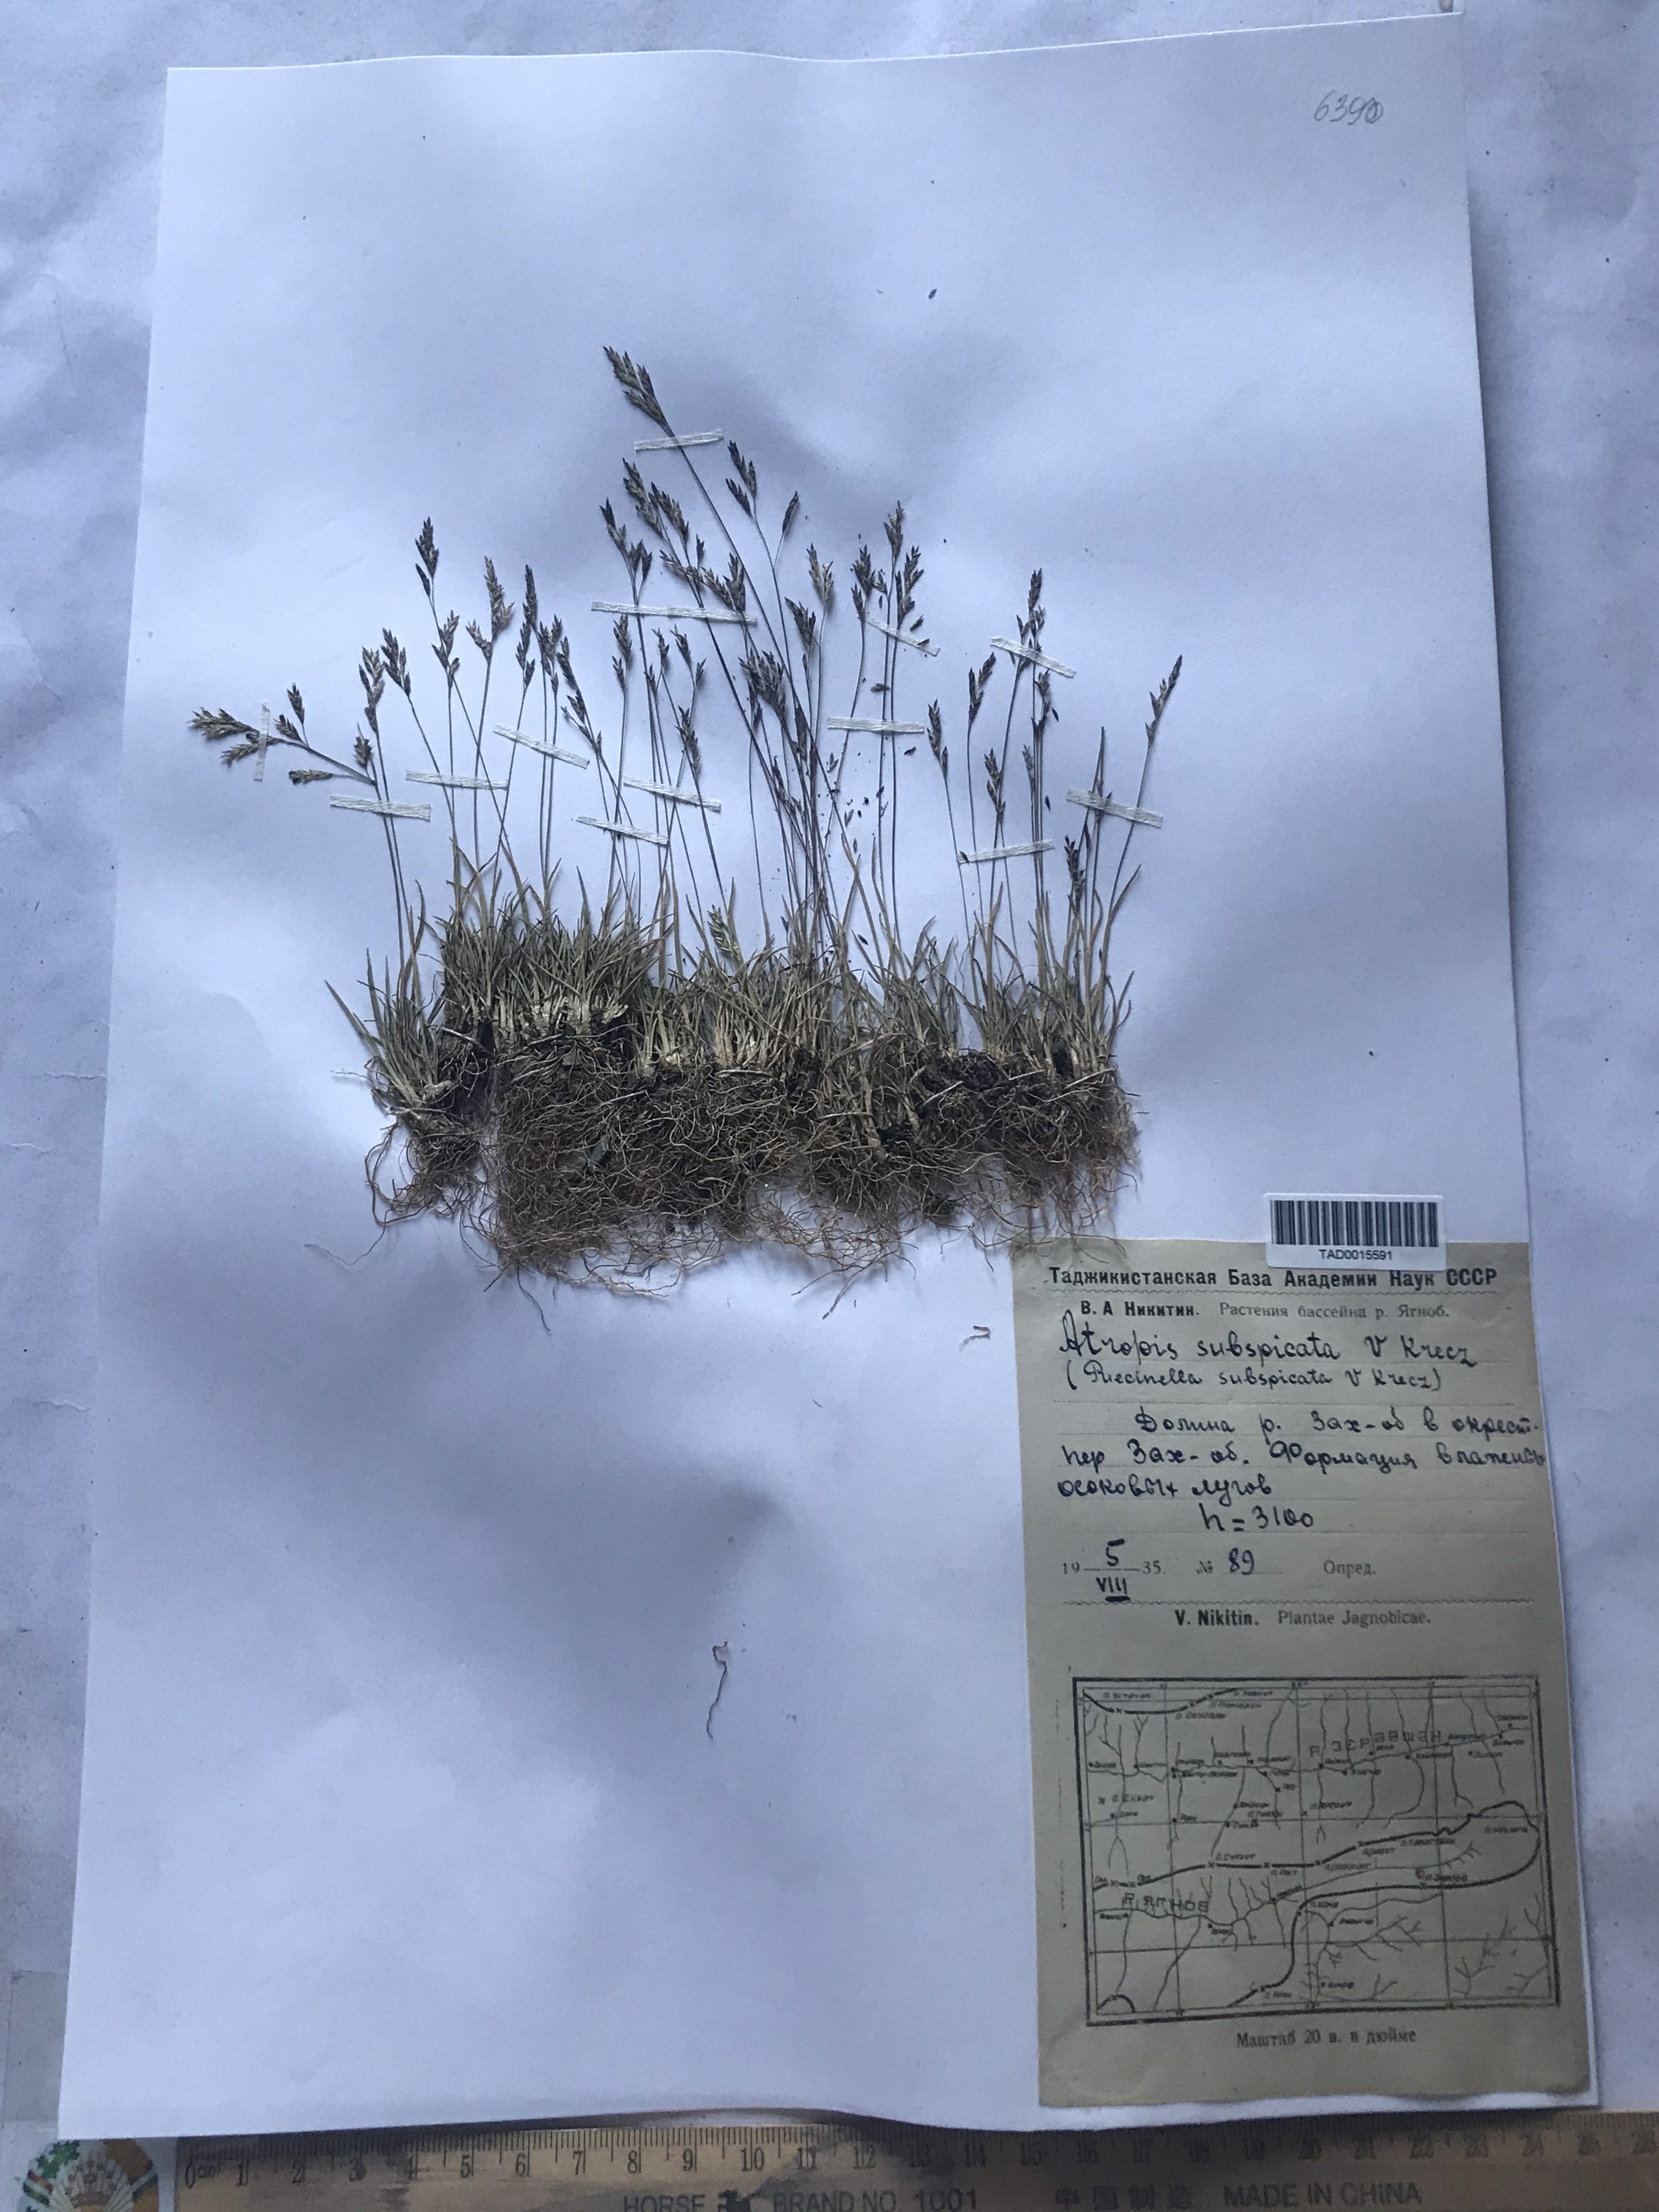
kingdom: Plantae
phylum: Tracheophyta
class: Liliopsida
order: Poales
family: Poaceae
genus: Puccinellia
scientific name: Puccinellia subspicata
